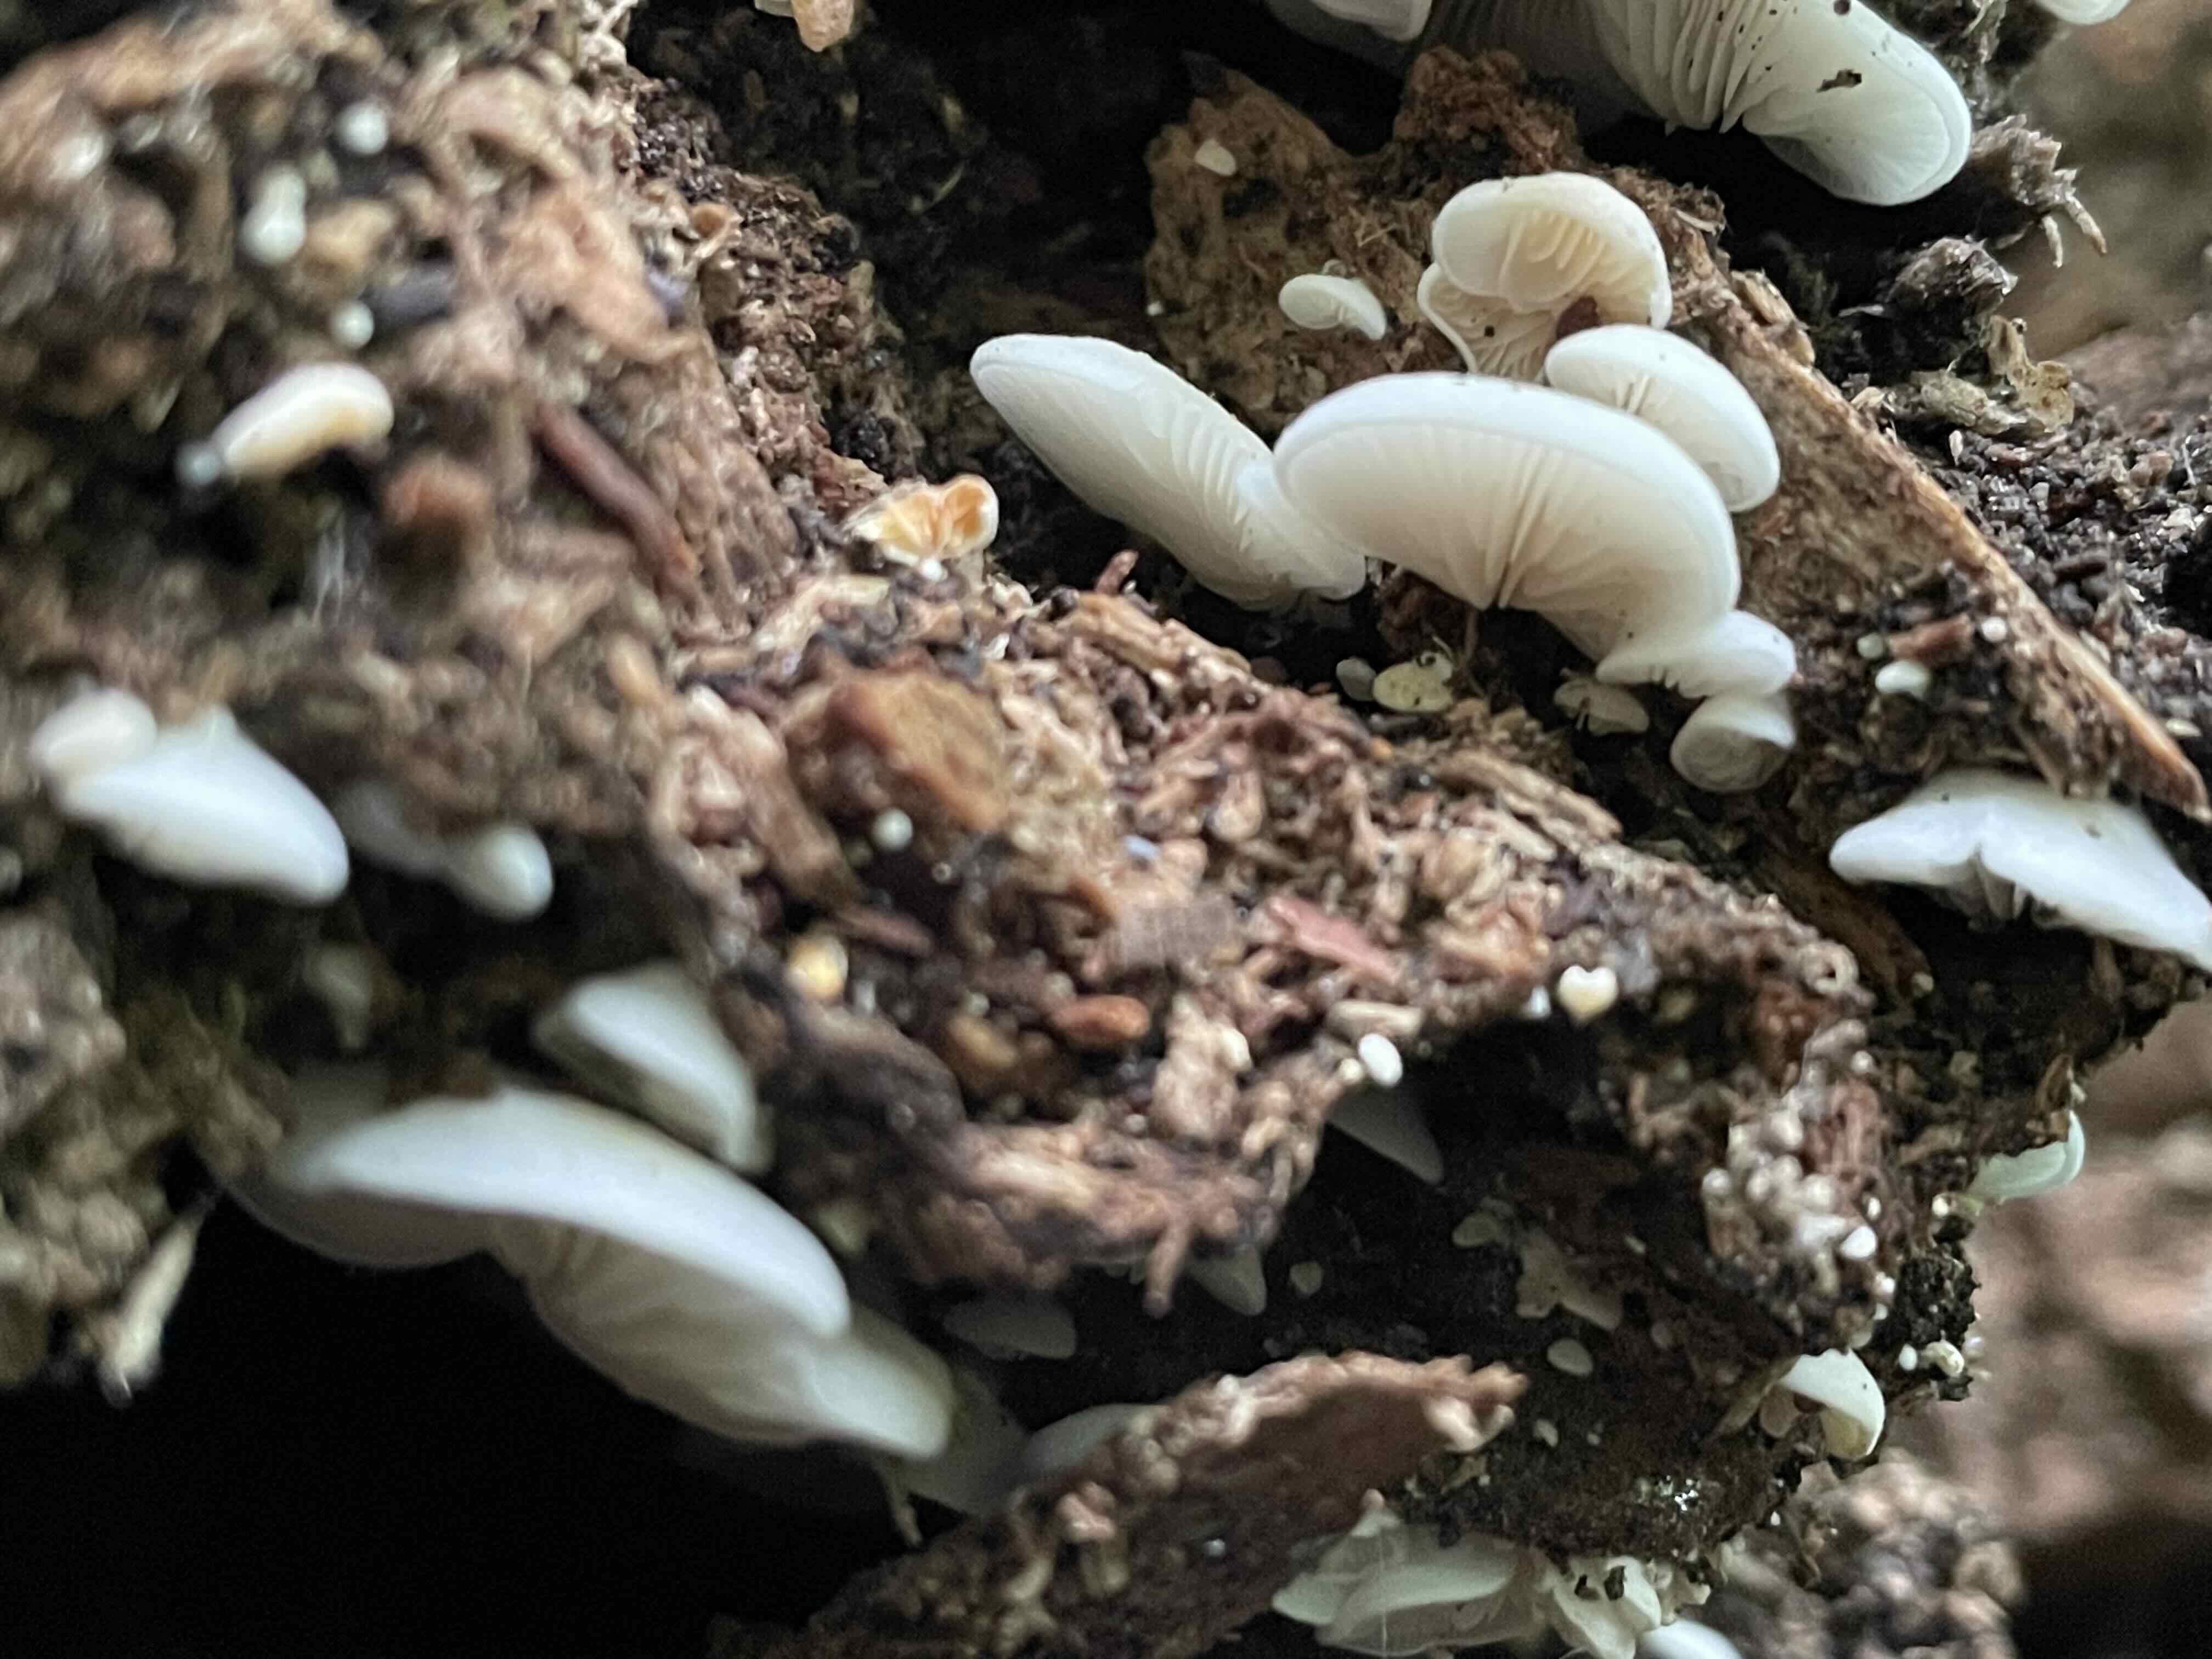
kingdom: Fungi
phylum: Basidiomycota
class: Agaricomycetes
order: Agaricales
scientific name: Agaricales
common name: champignonordenen
